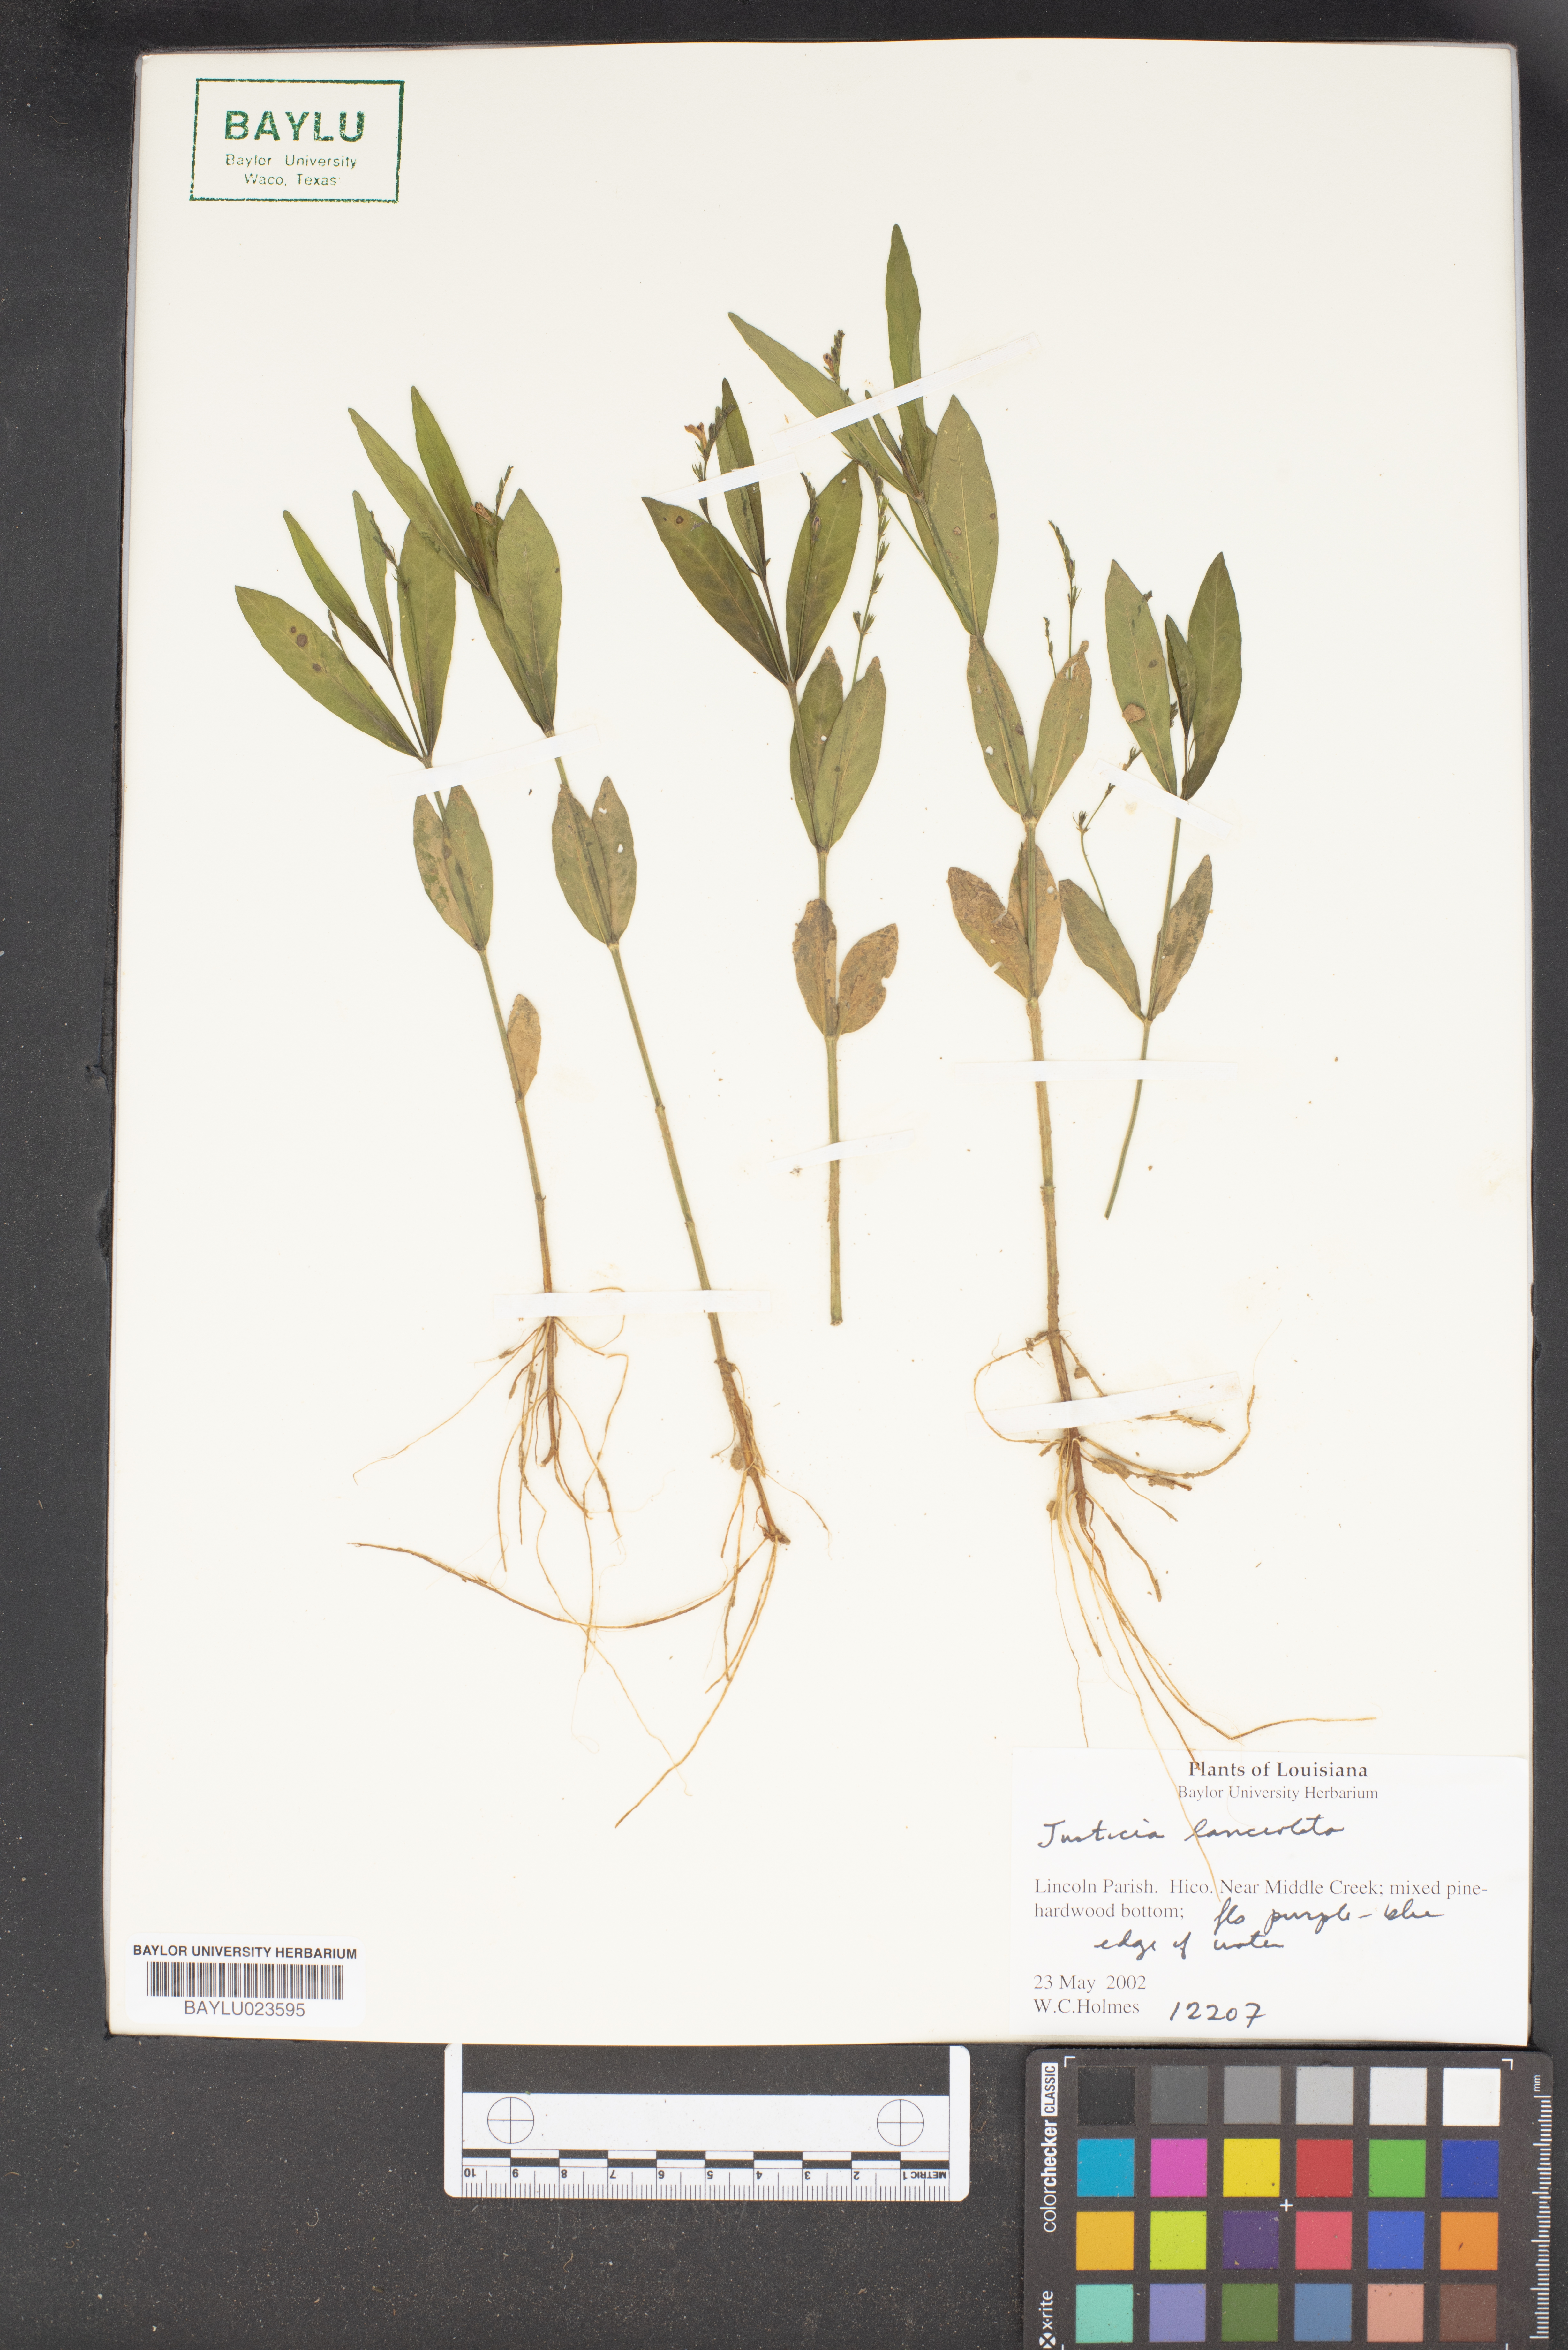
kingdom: Plantae
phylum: Tracheophyta
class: Magnoliopsida
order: Lamiales
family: Acanthaceae
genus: Justicia
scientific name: Justicia lanceolata
